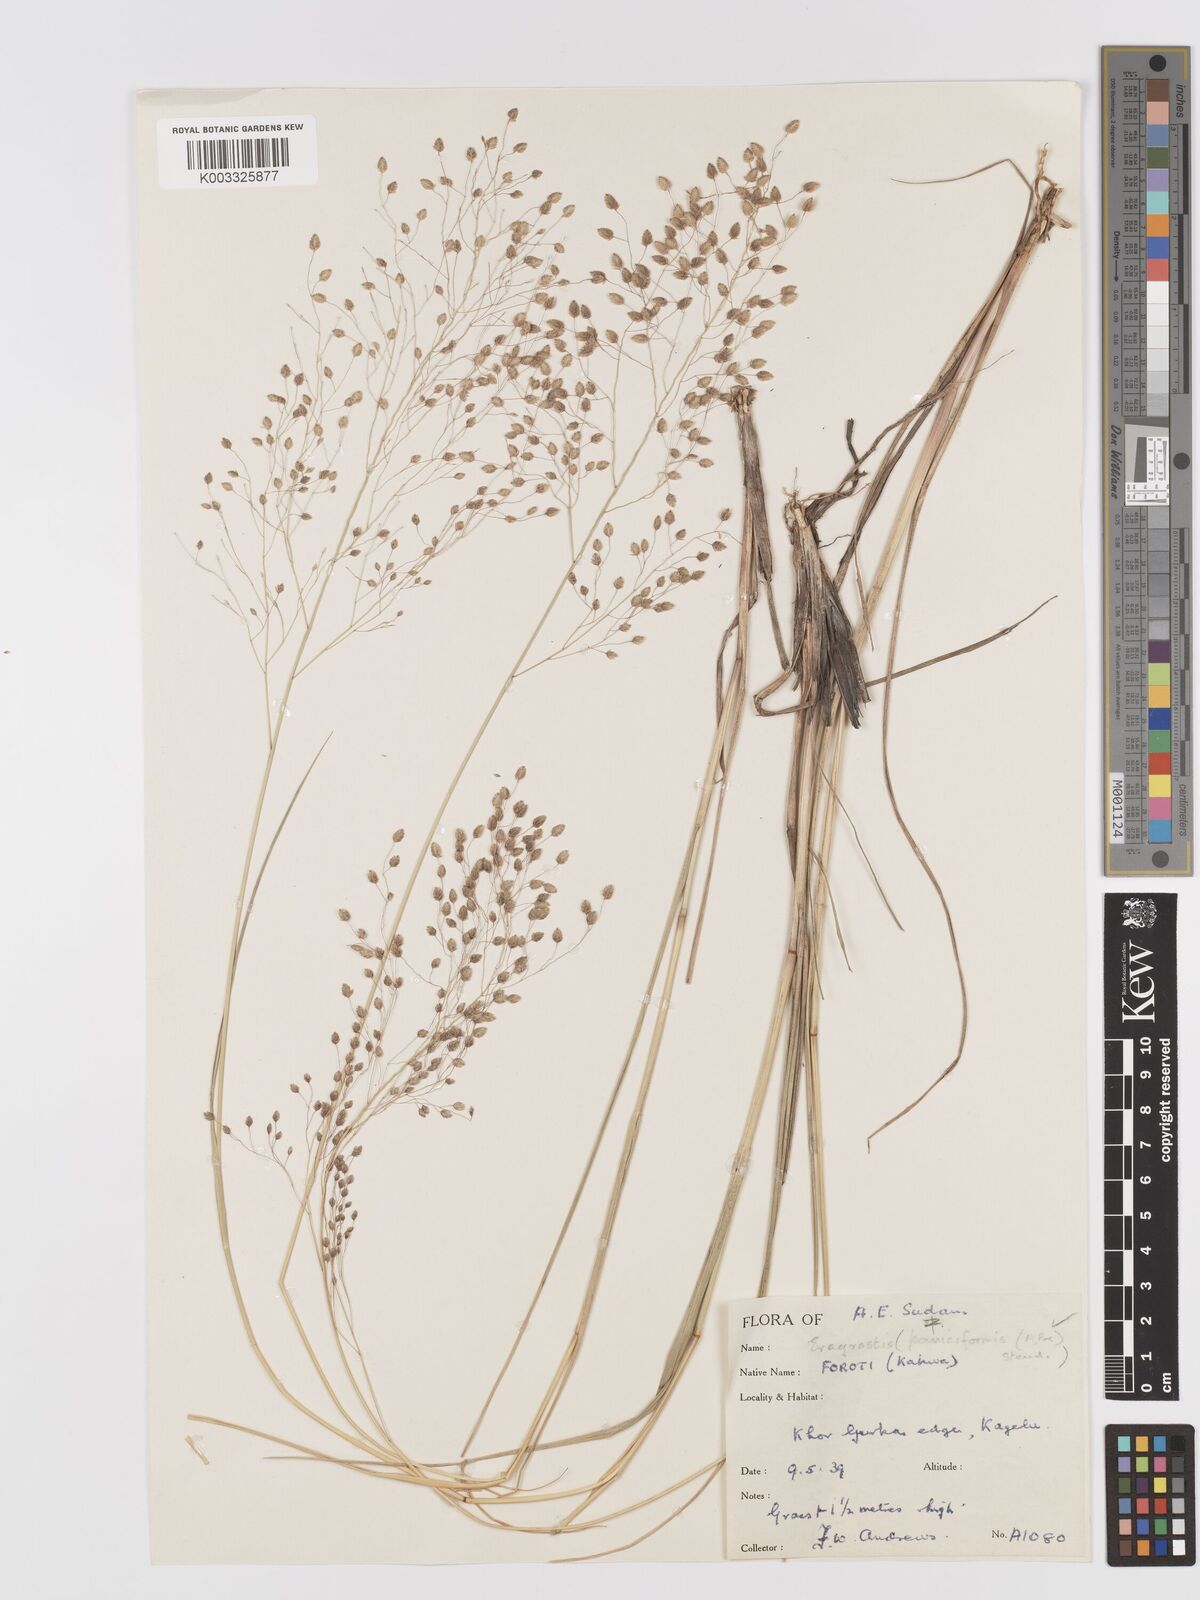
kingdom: Plantae
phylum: Tracheophyta
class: Liliopsida
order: Poales
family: Poaceae
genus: Eragrostis
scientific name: Eragrostis paniciformis
